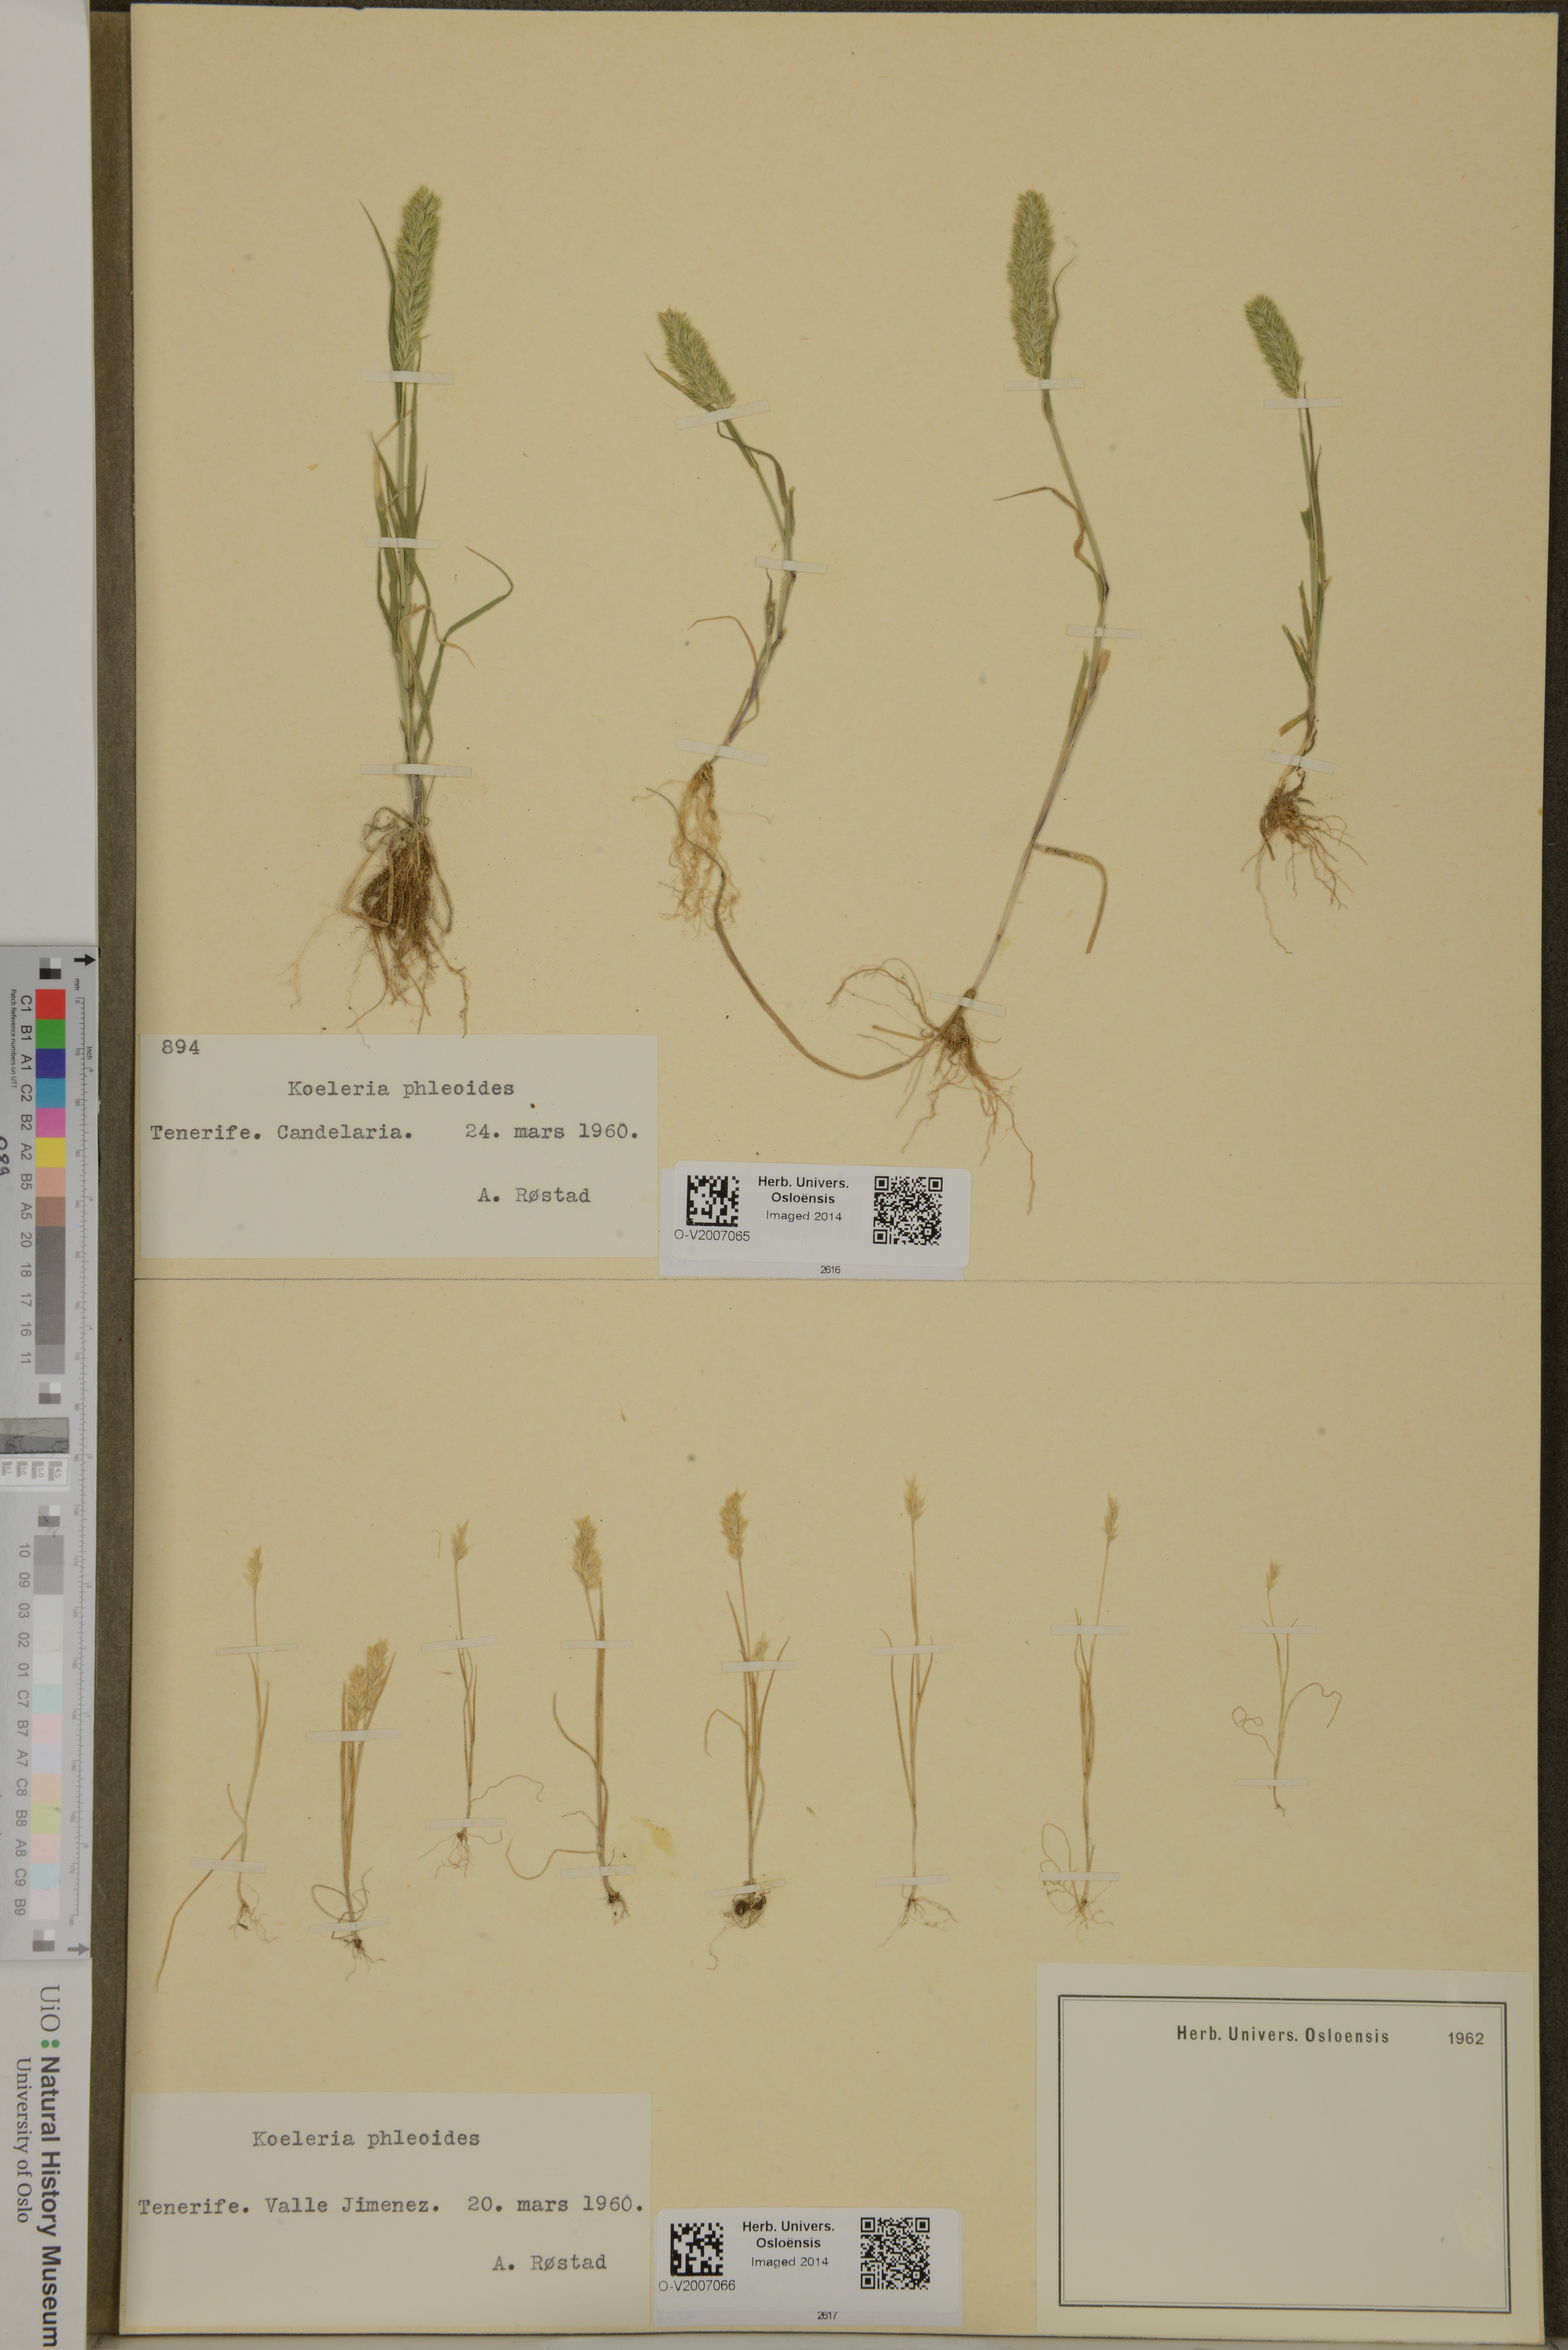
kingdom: Plantae
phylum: Tracheophyta
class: Liliopsida
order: Poales
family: Poaceae
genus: Rostraria
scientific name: Rostraria cristata
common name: Mediterranean hair-grass
